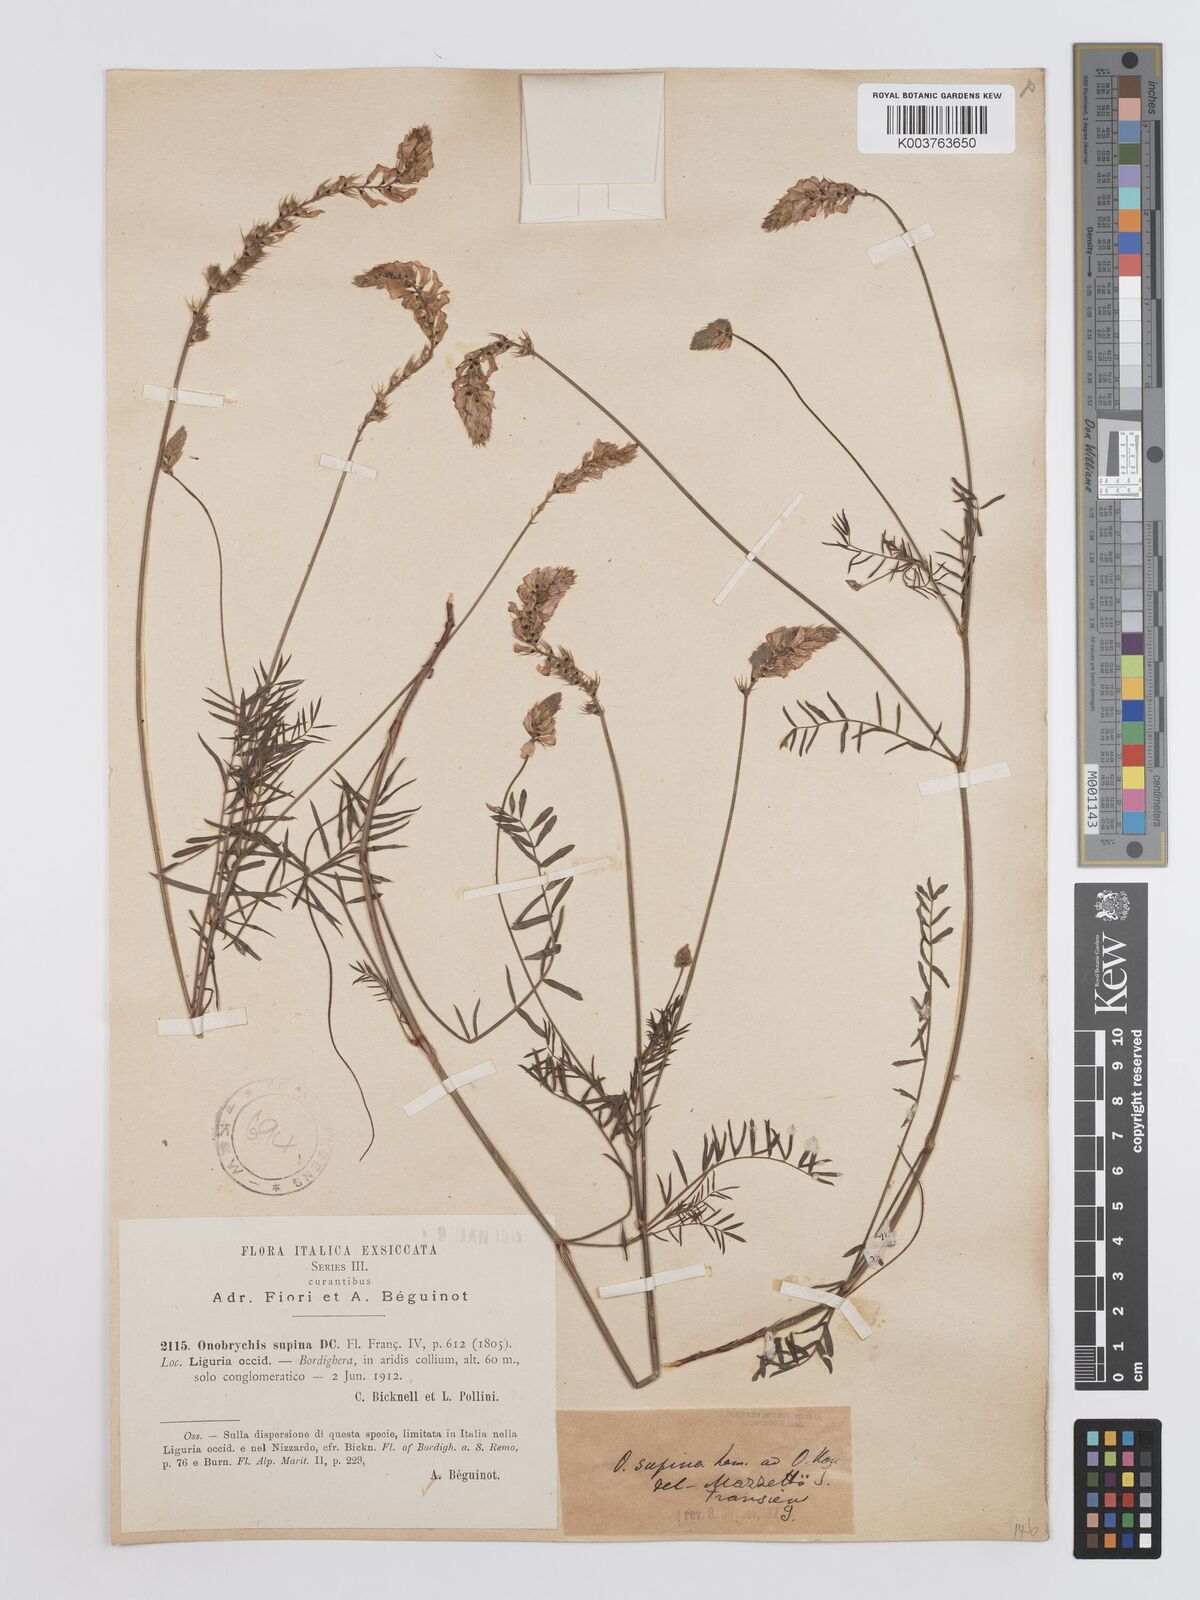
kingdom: Plantae
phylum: Tracheophyta
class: Magnoliopsida
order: Fabales
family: Fabaceae
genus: Onobrychis
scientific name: Onobrychis supina
